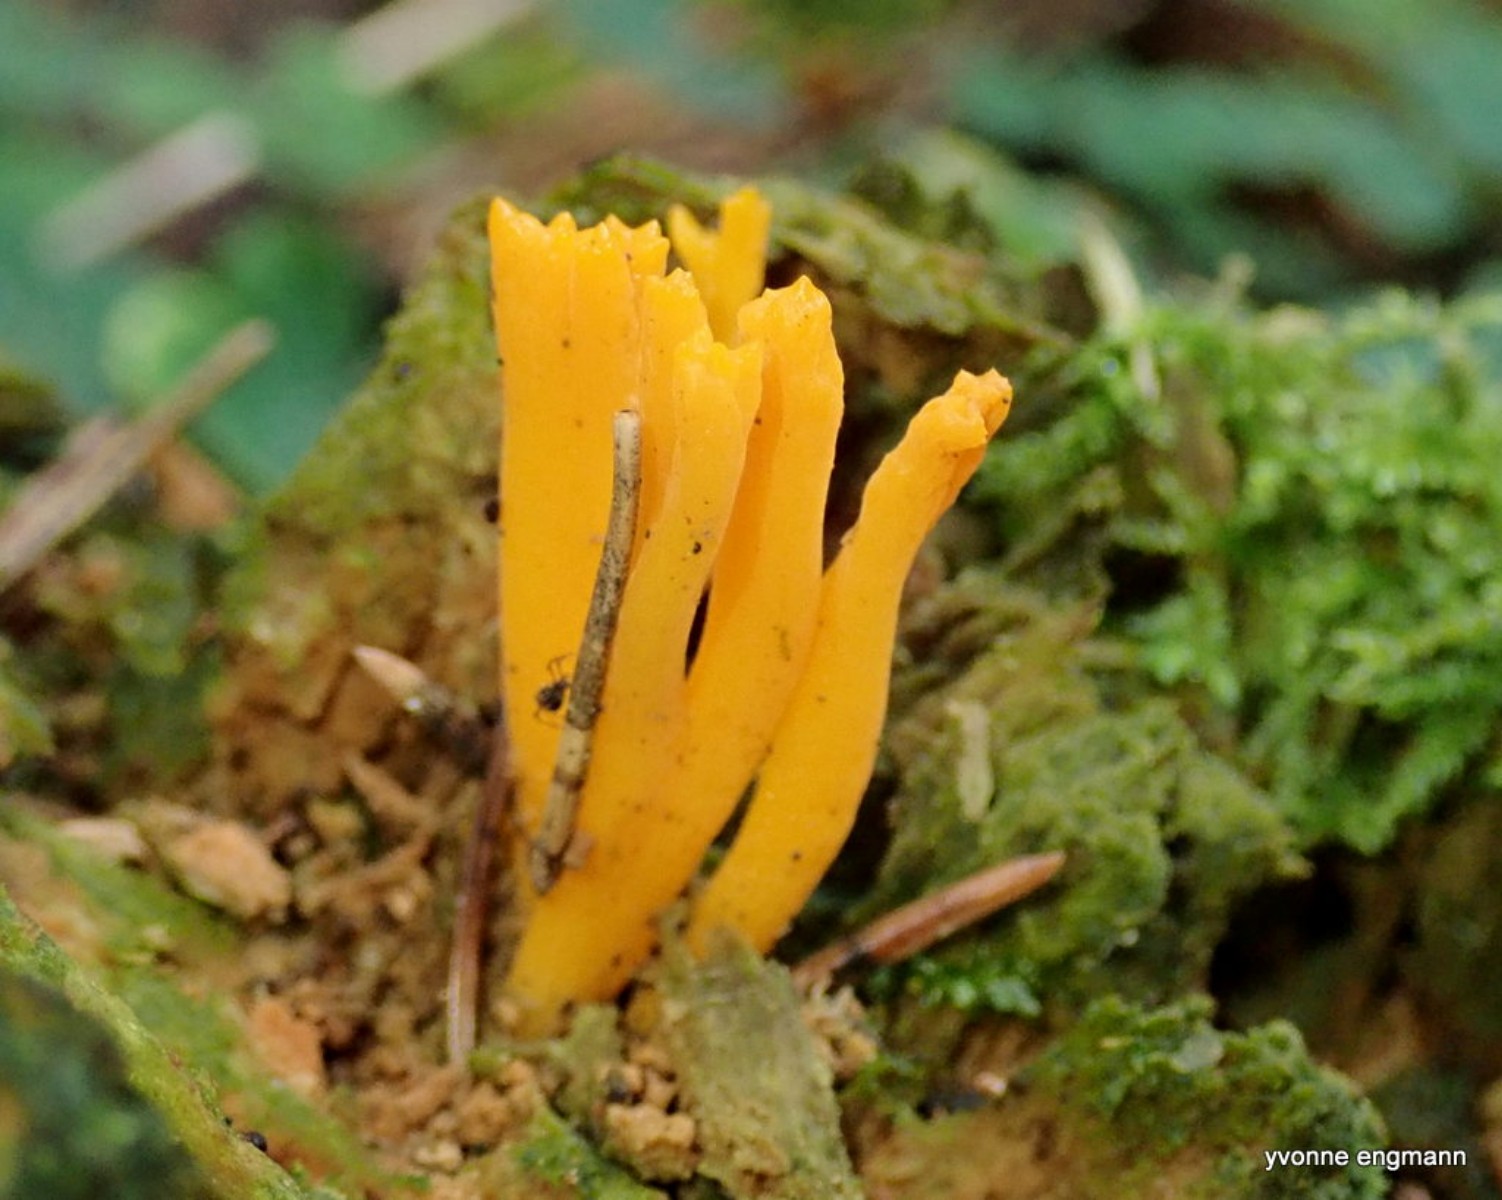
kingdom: Fungi
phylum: Basidiomycota
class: Dacrymycetes
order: Dacrymycetales
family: Dacrymycetaceae
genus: Calocera
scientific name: Calocera viscosa
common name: almindelig guldgaffel
